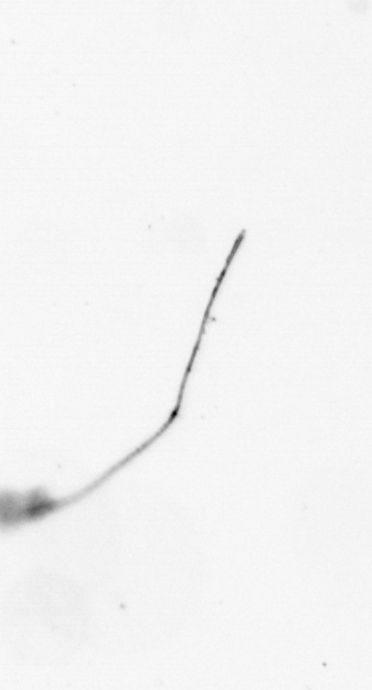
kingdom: Chromista
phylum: Ochrophyta
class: Bacillariophyceae
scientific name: Bacillariophyceae
